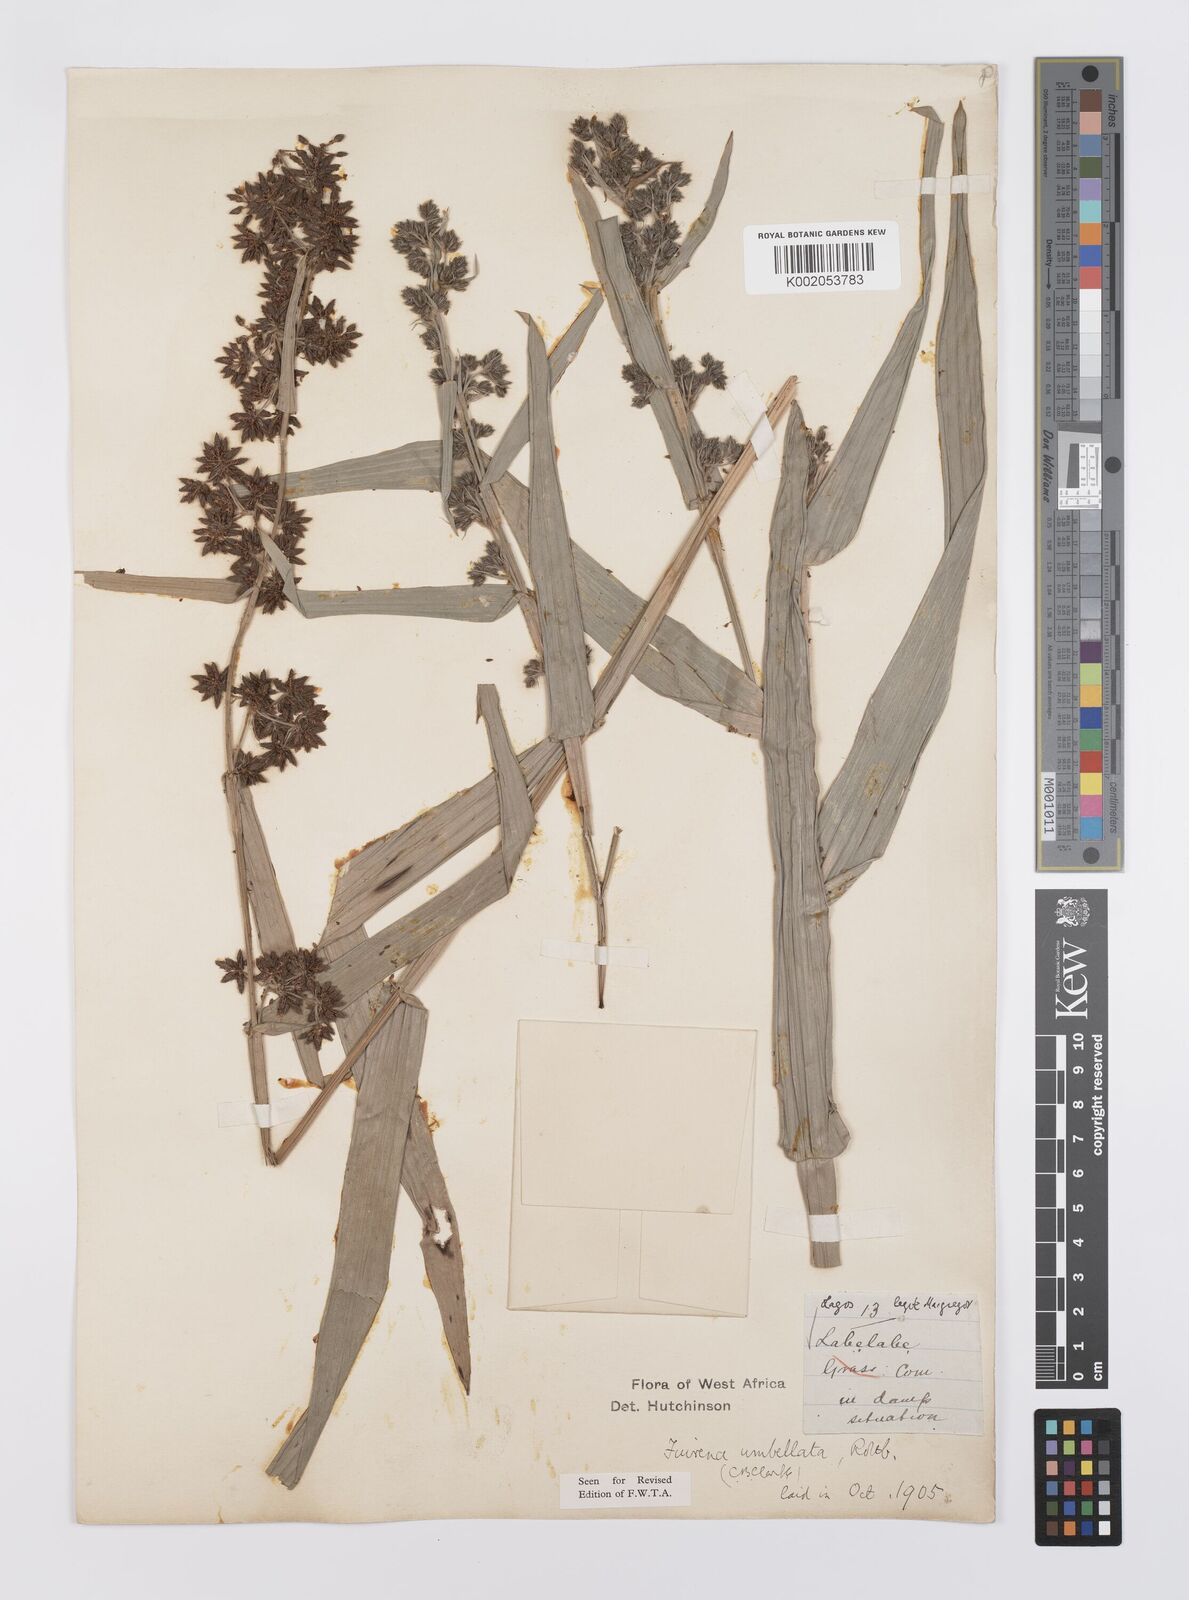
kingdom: Plantae
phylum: Tracheophyta
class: Liliopsida
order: Poales
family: Cyperaceae
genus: Fuirena
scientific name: Fuirena umbellata
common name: Yefen
